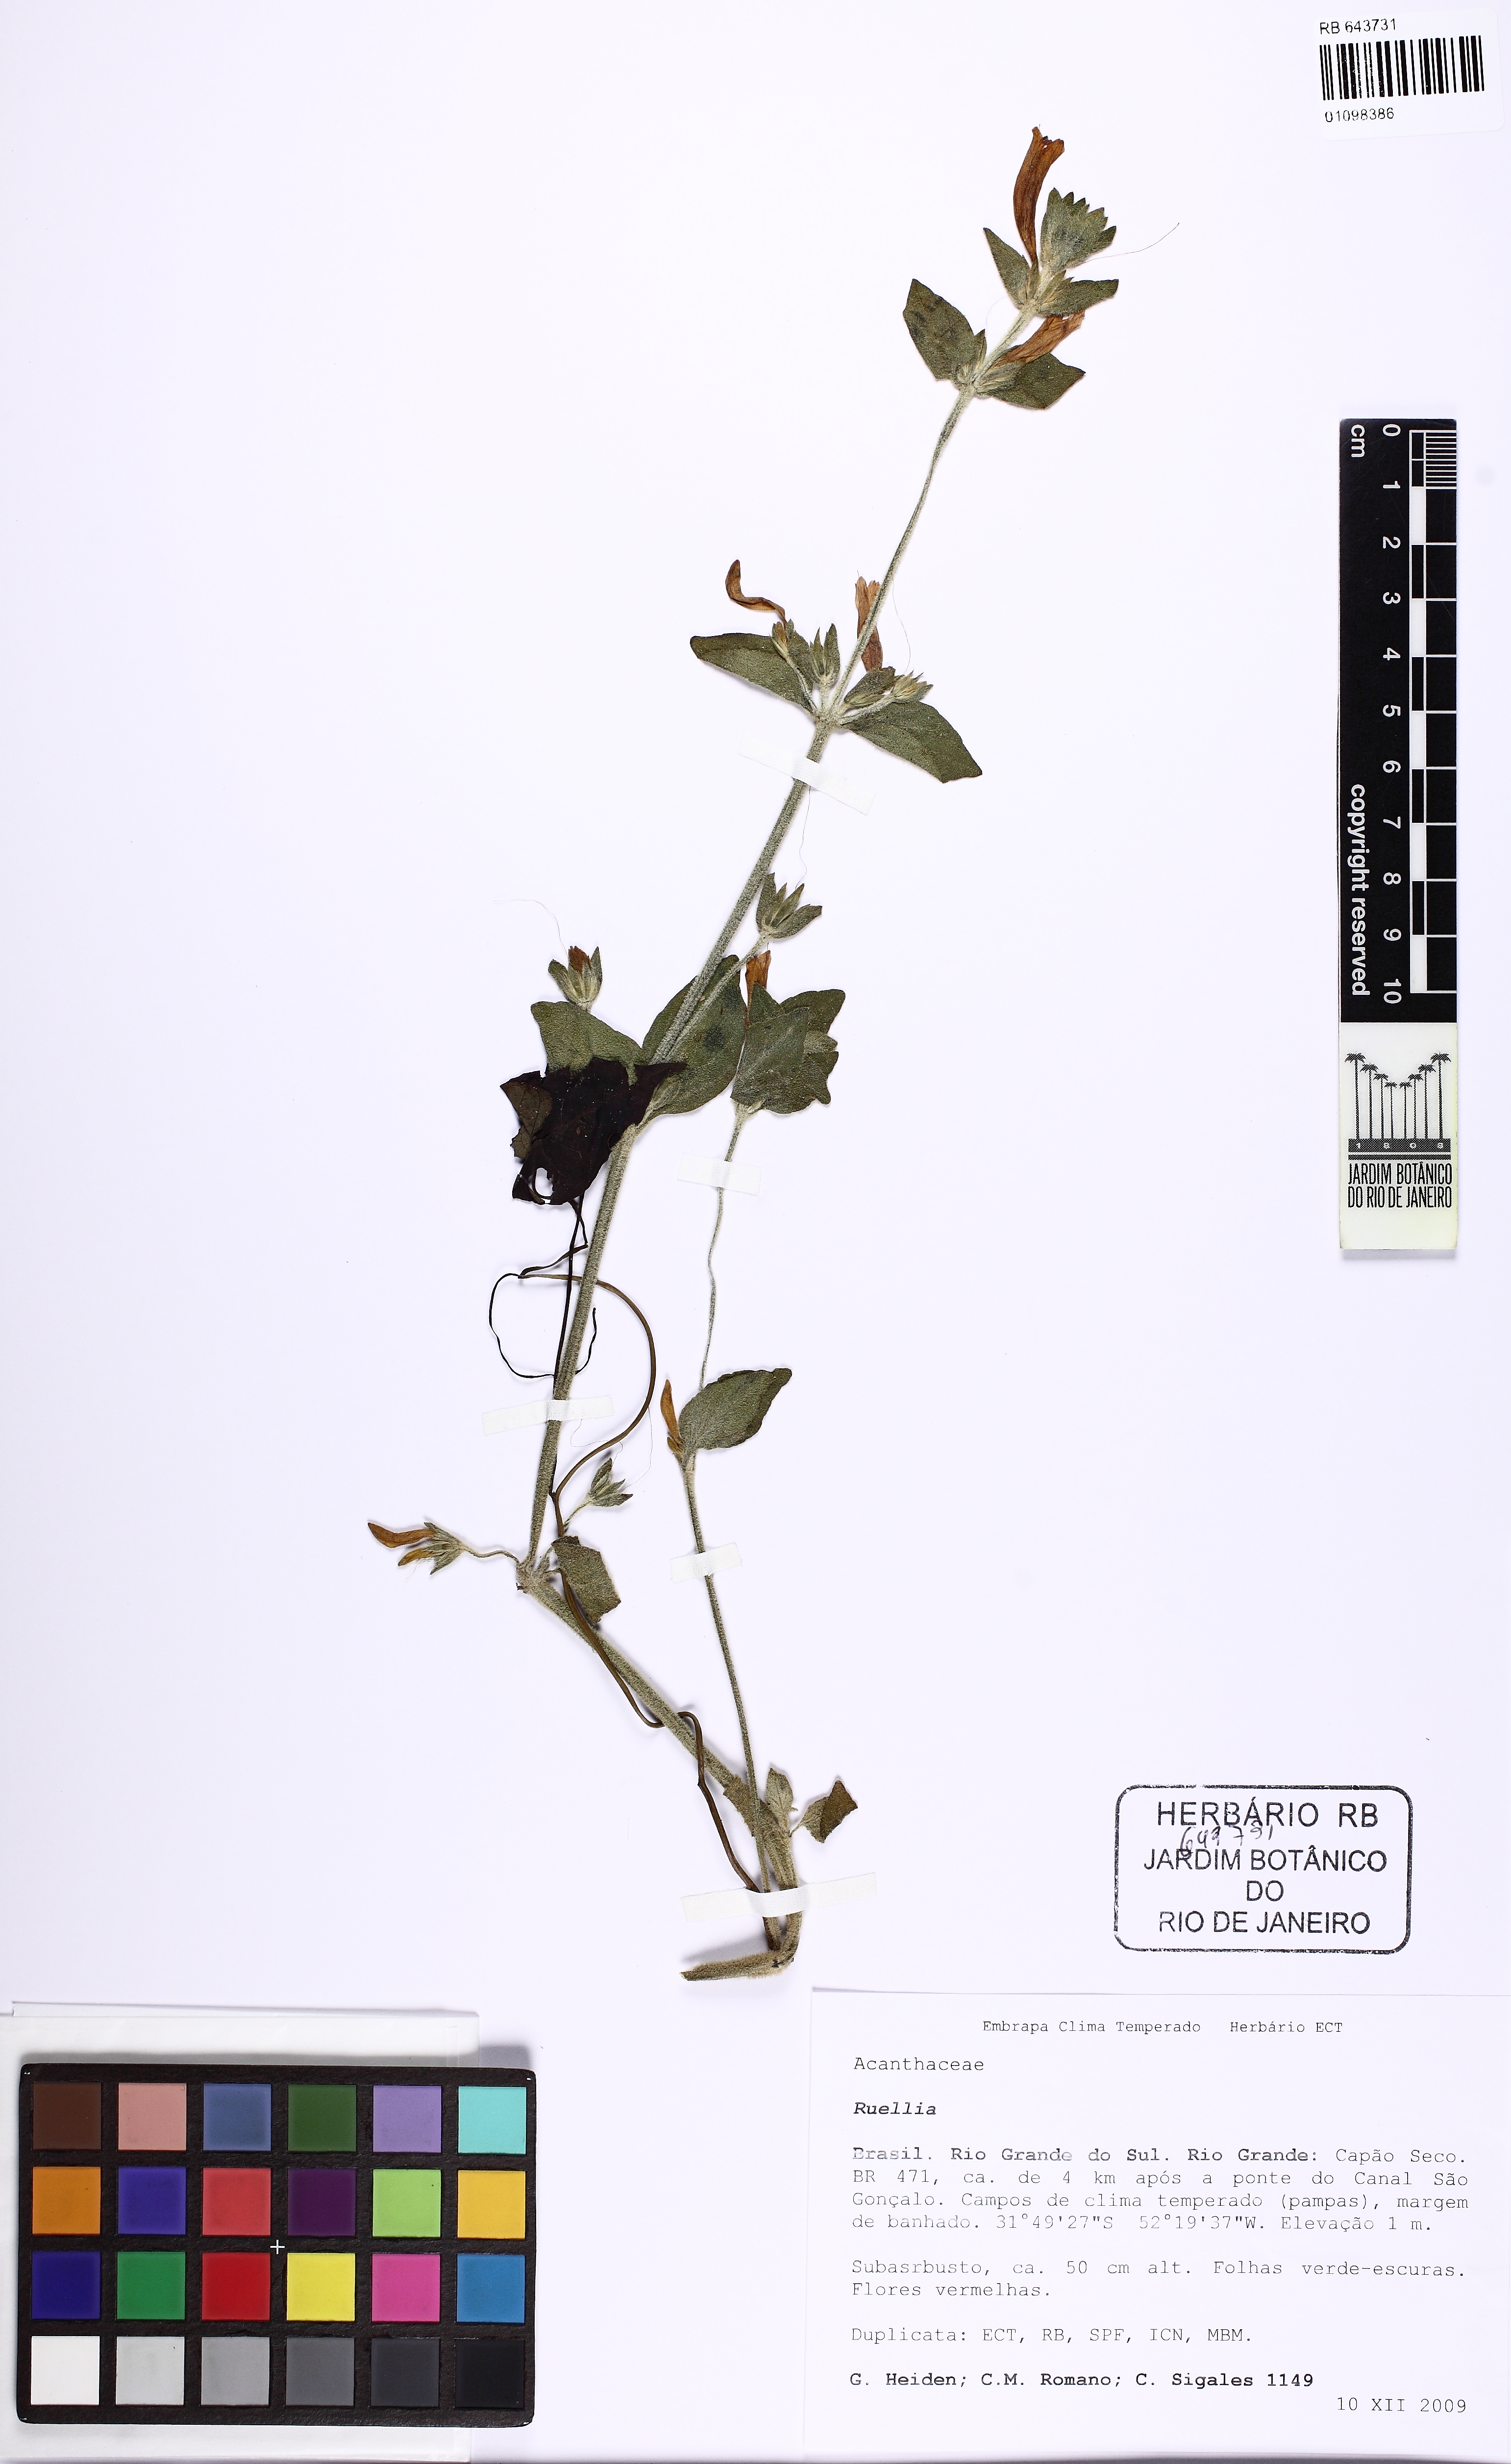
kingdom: Plantae
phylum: Tracheophyta
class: Magnoliopsida
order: Lamiales
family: Acanthaceae
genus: Ruellia
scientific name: Ruellia
